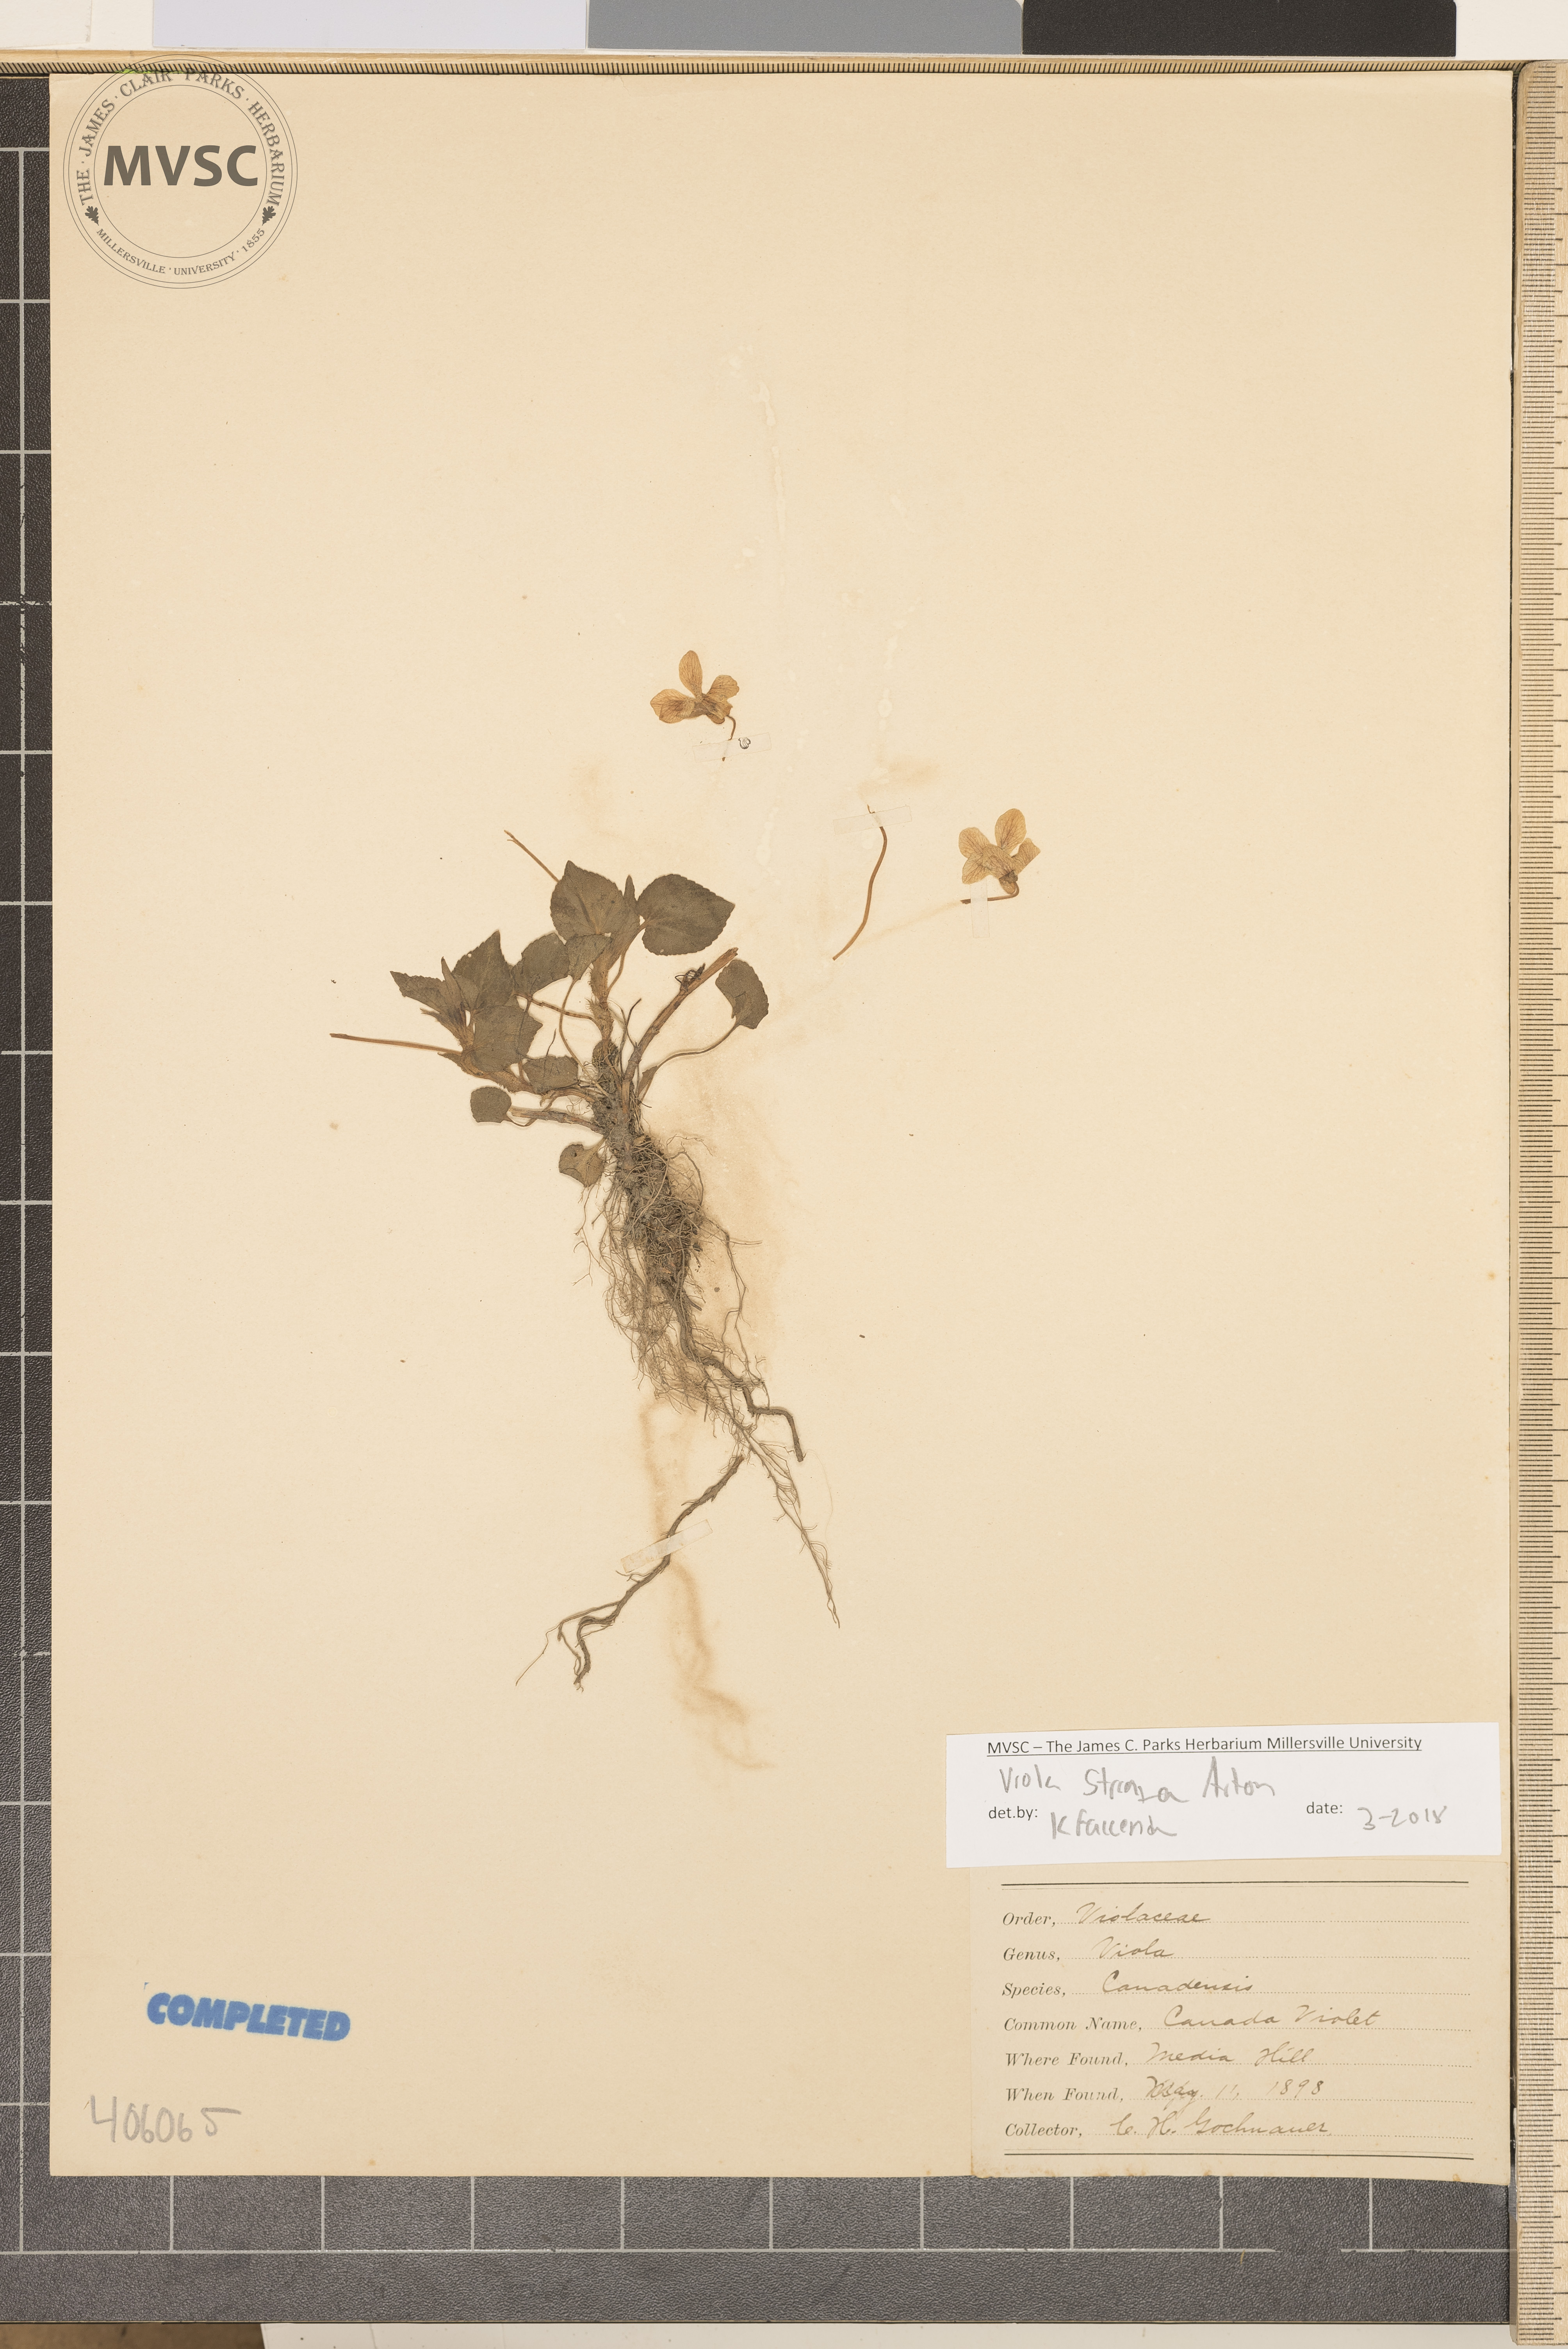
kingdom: Plantae
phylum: Tracheophyta
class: Magnoliopsida
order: Malpighiales
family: Violaceae
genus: Viola
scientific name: Viola striata
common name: Cream violet
